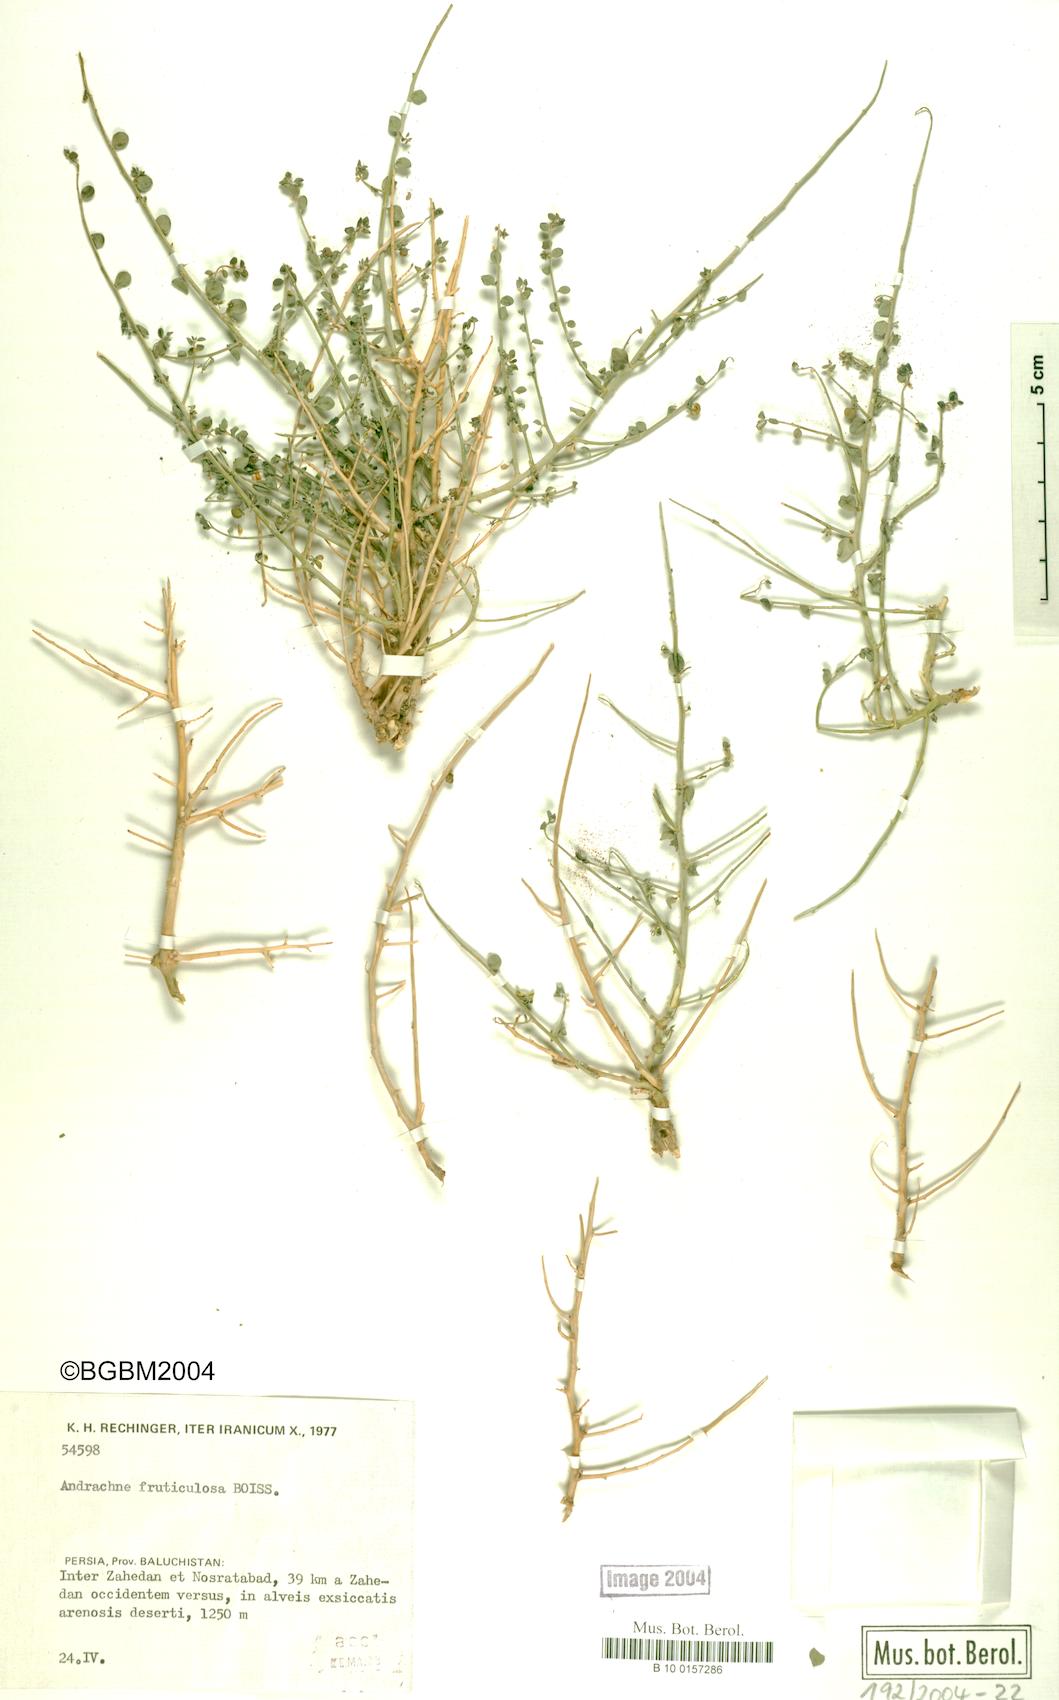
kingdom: Plantae
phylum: Tracheophyta
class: Magnoliopsida
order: Malpighiales
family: Phyllanthaceae
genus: Andrachne
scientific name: Andrachne fruticulosa
